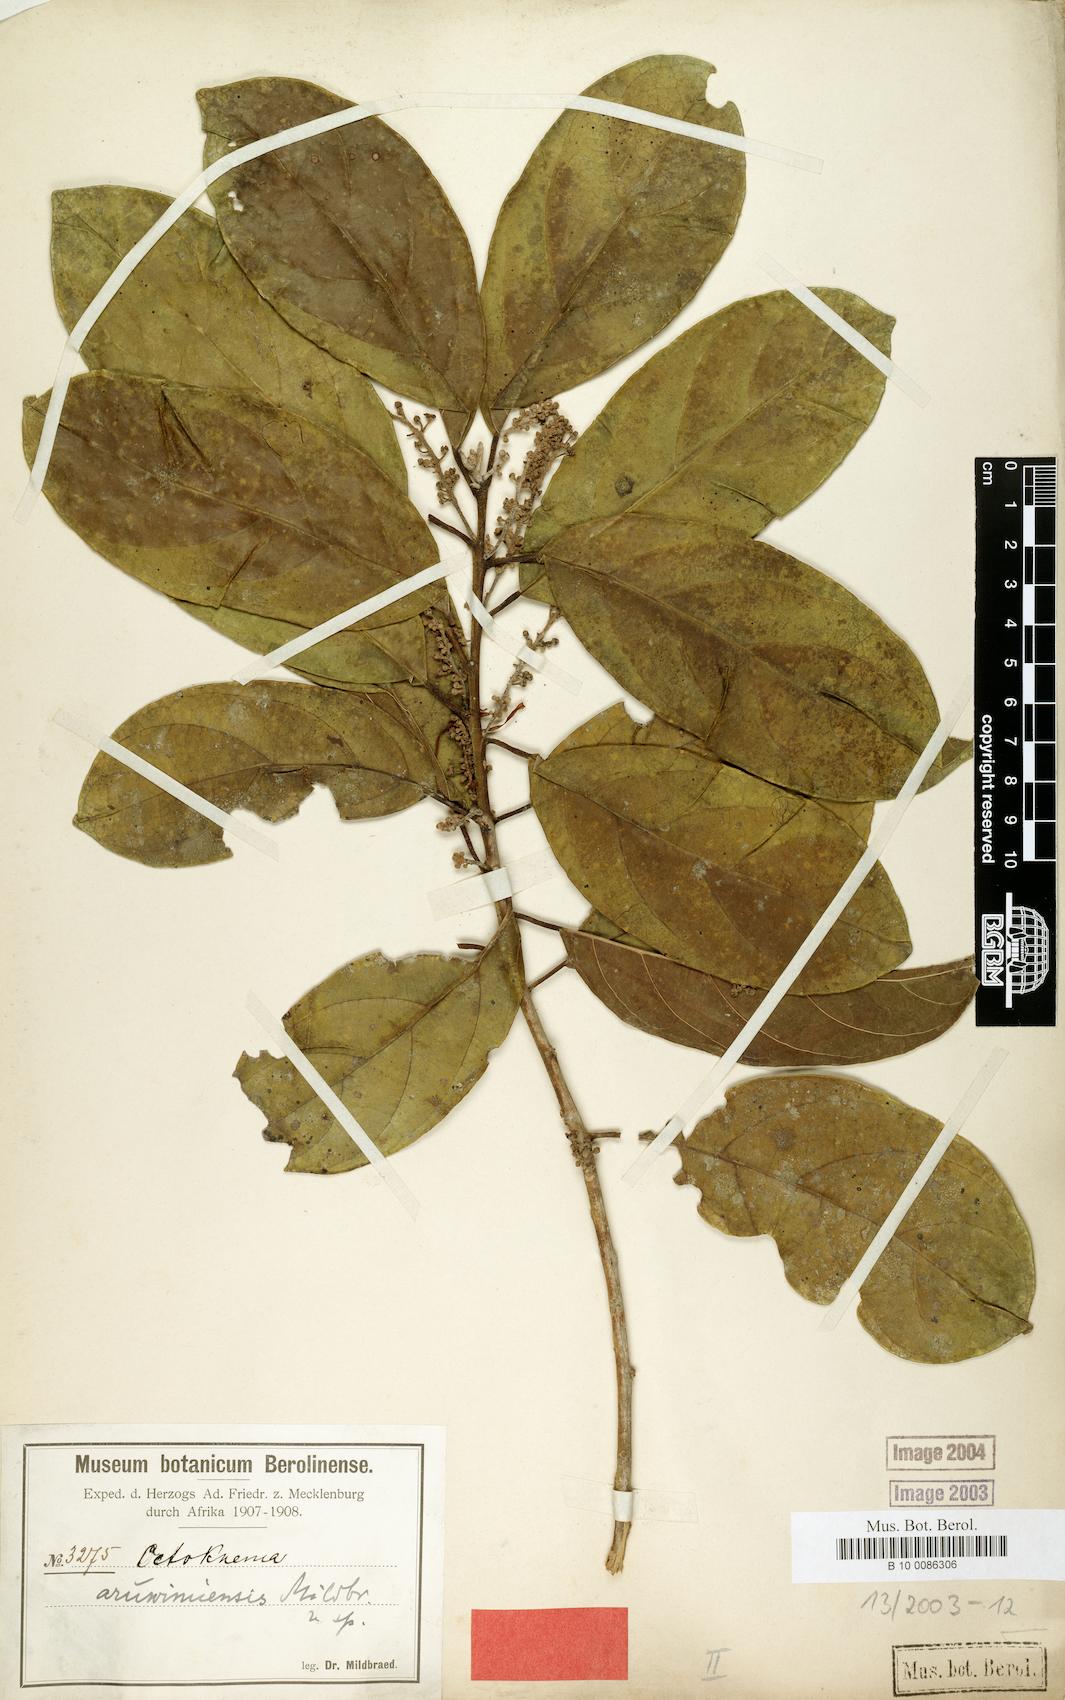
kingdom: Plantae
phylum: Tracheophyta
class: Magnoliopsida
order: Santalales
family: Octoknemaceae
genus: Octoknema
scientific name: Octoknema aruwimiensis
